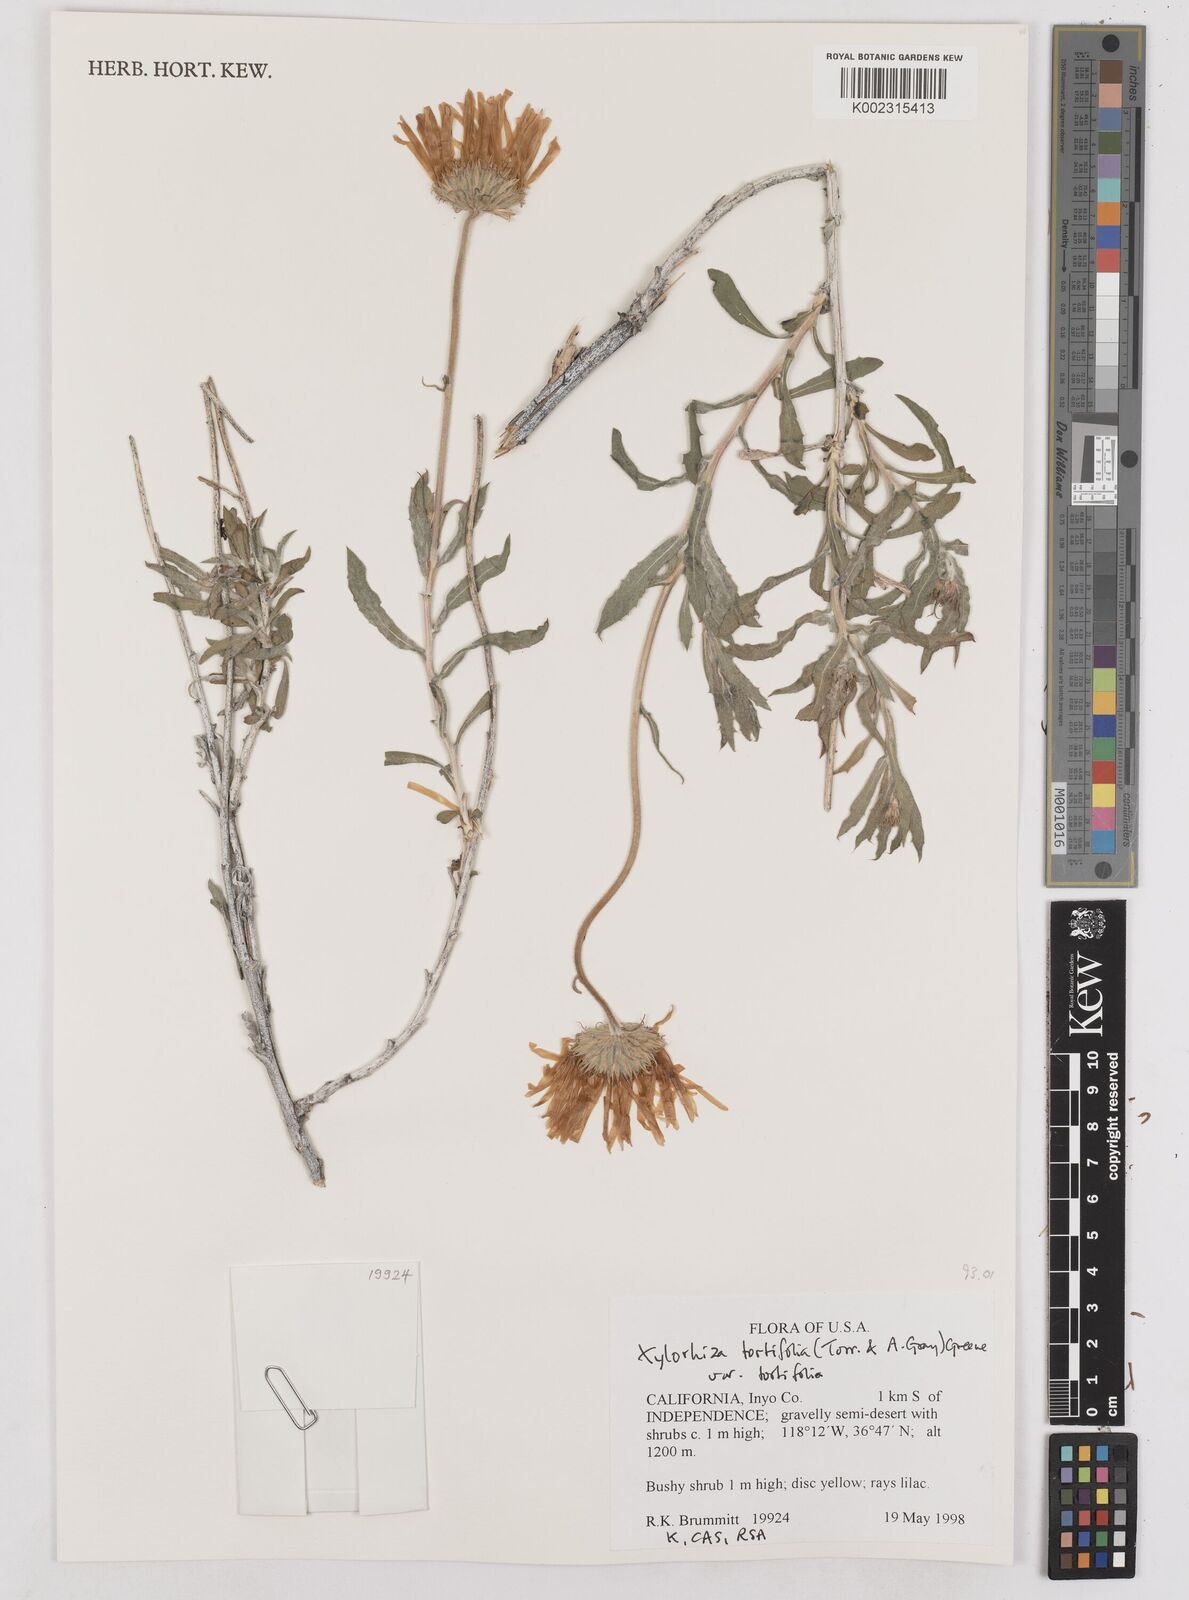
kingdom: Plantae
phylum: Tracheophyta
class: Magnoliopsida
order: Asterales
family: Asteraceae
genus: Xylorhiza
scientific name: Xylorhiza tortifolia
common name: Hurt-leaf woody-aster
